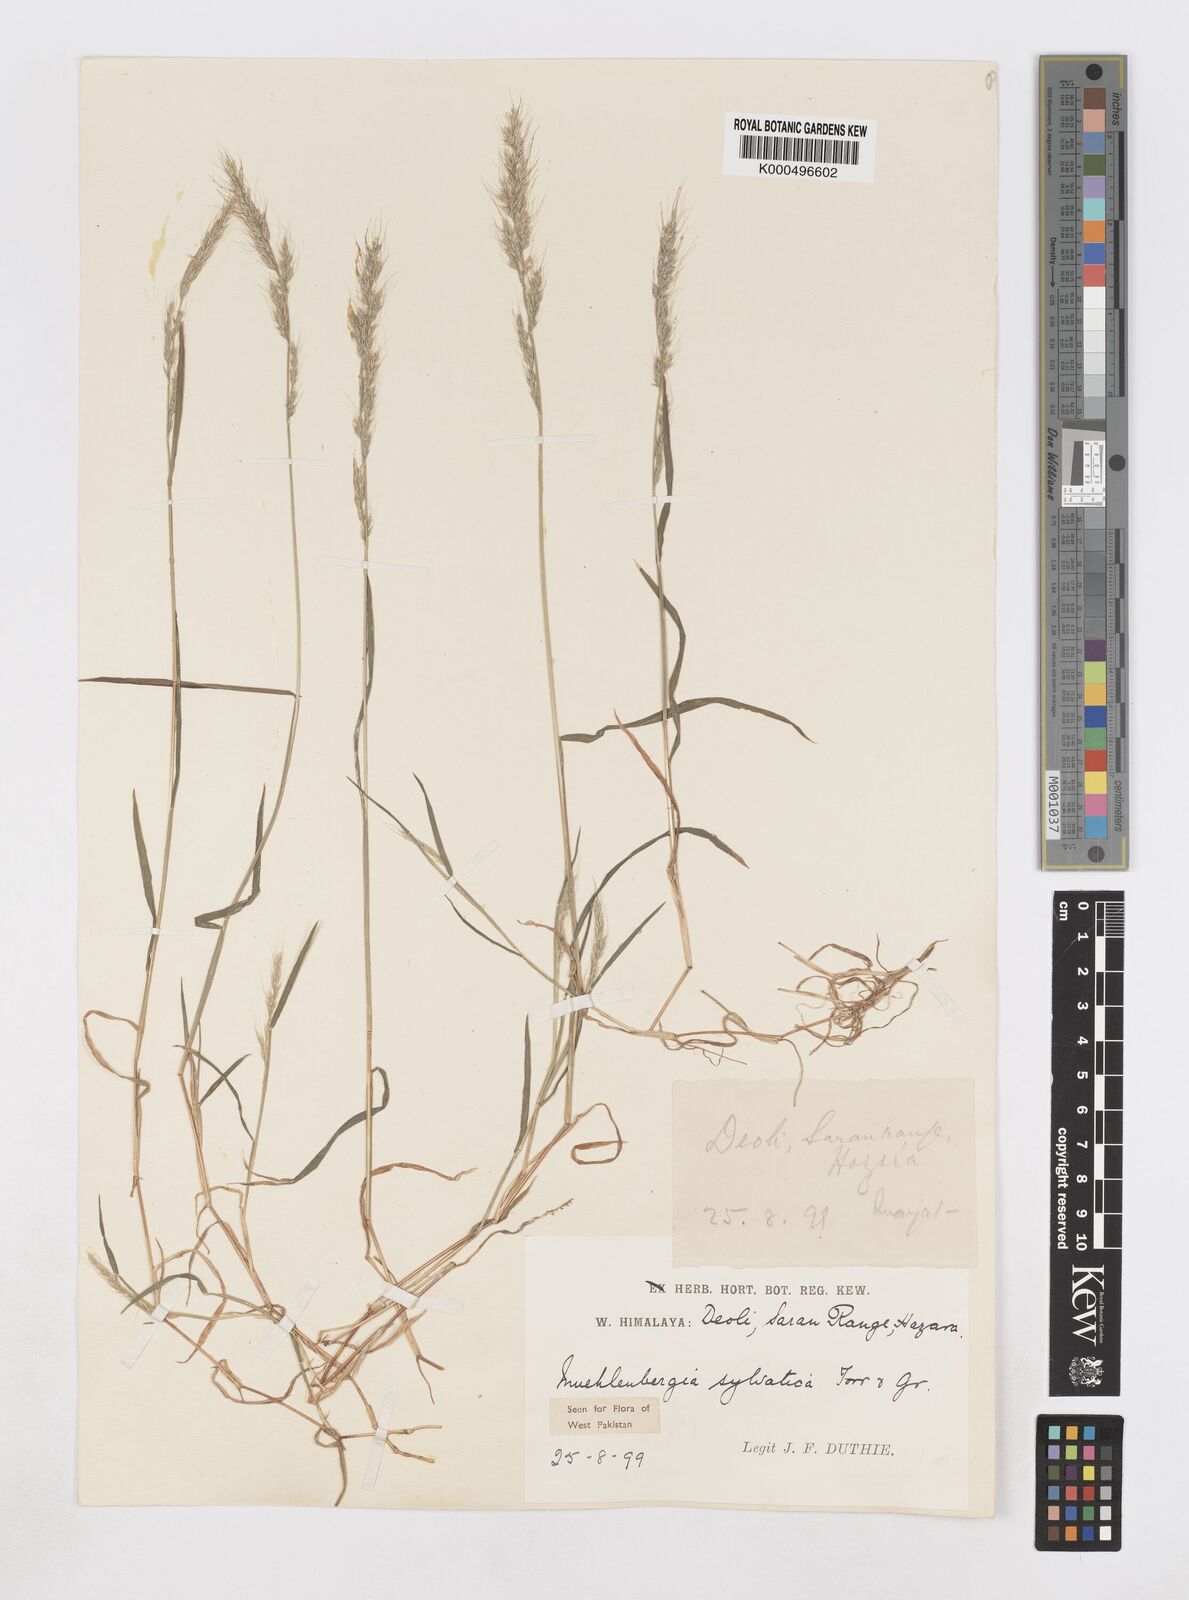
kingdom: Plantae
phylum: Tracheophyta
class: Liliopsida
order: Poales
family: Poaceae
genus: Muhlenbergia
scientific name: Muhlenbergia duthieana
